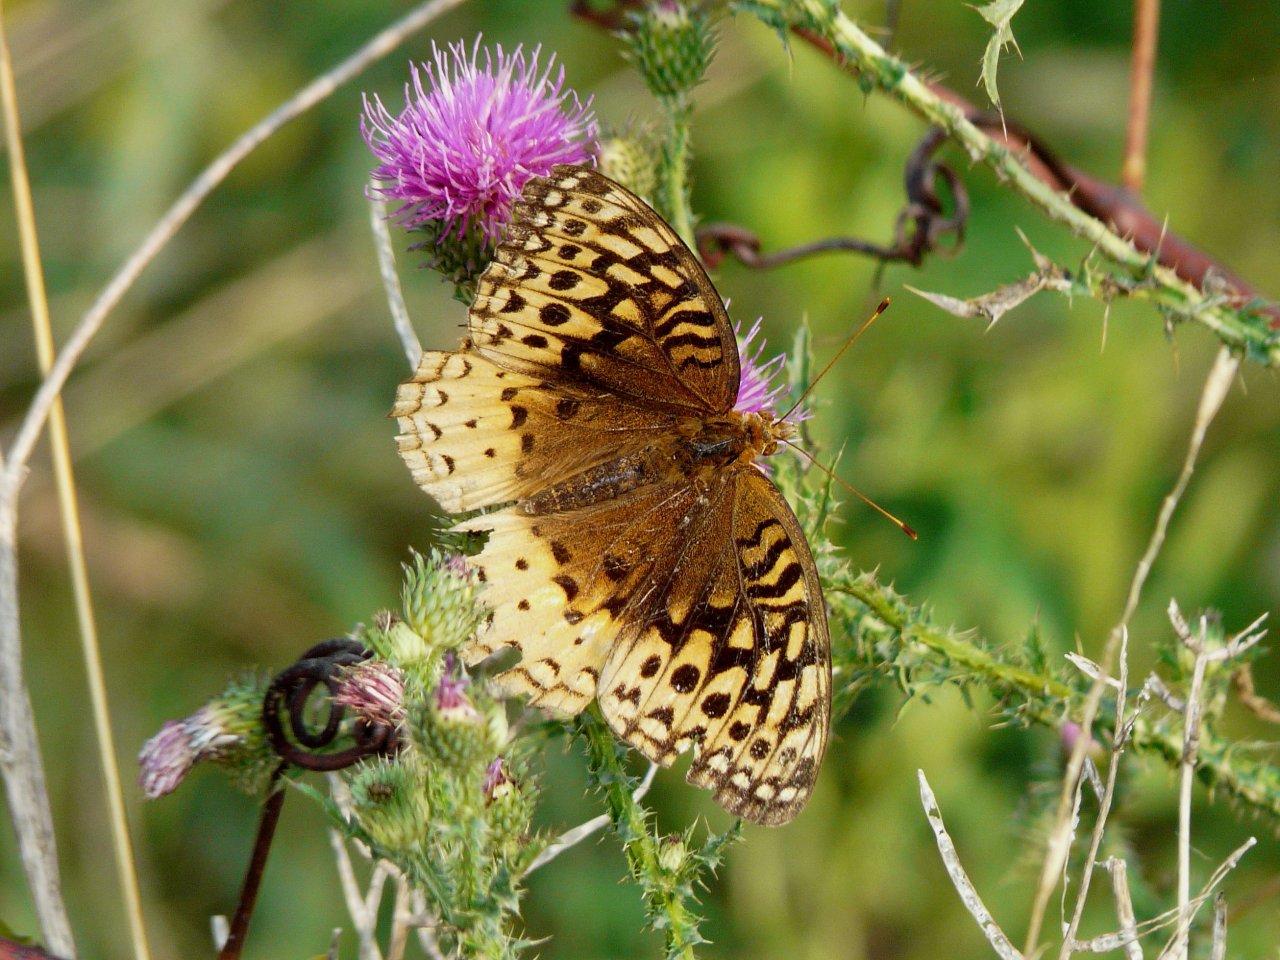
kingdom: Animalia
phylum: Arthropoda
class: Insecta
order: Lepidoptera
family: Nymphalidae
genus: Speyeria
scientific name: Speyeria cybele
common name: Great Spangled Fritillary
